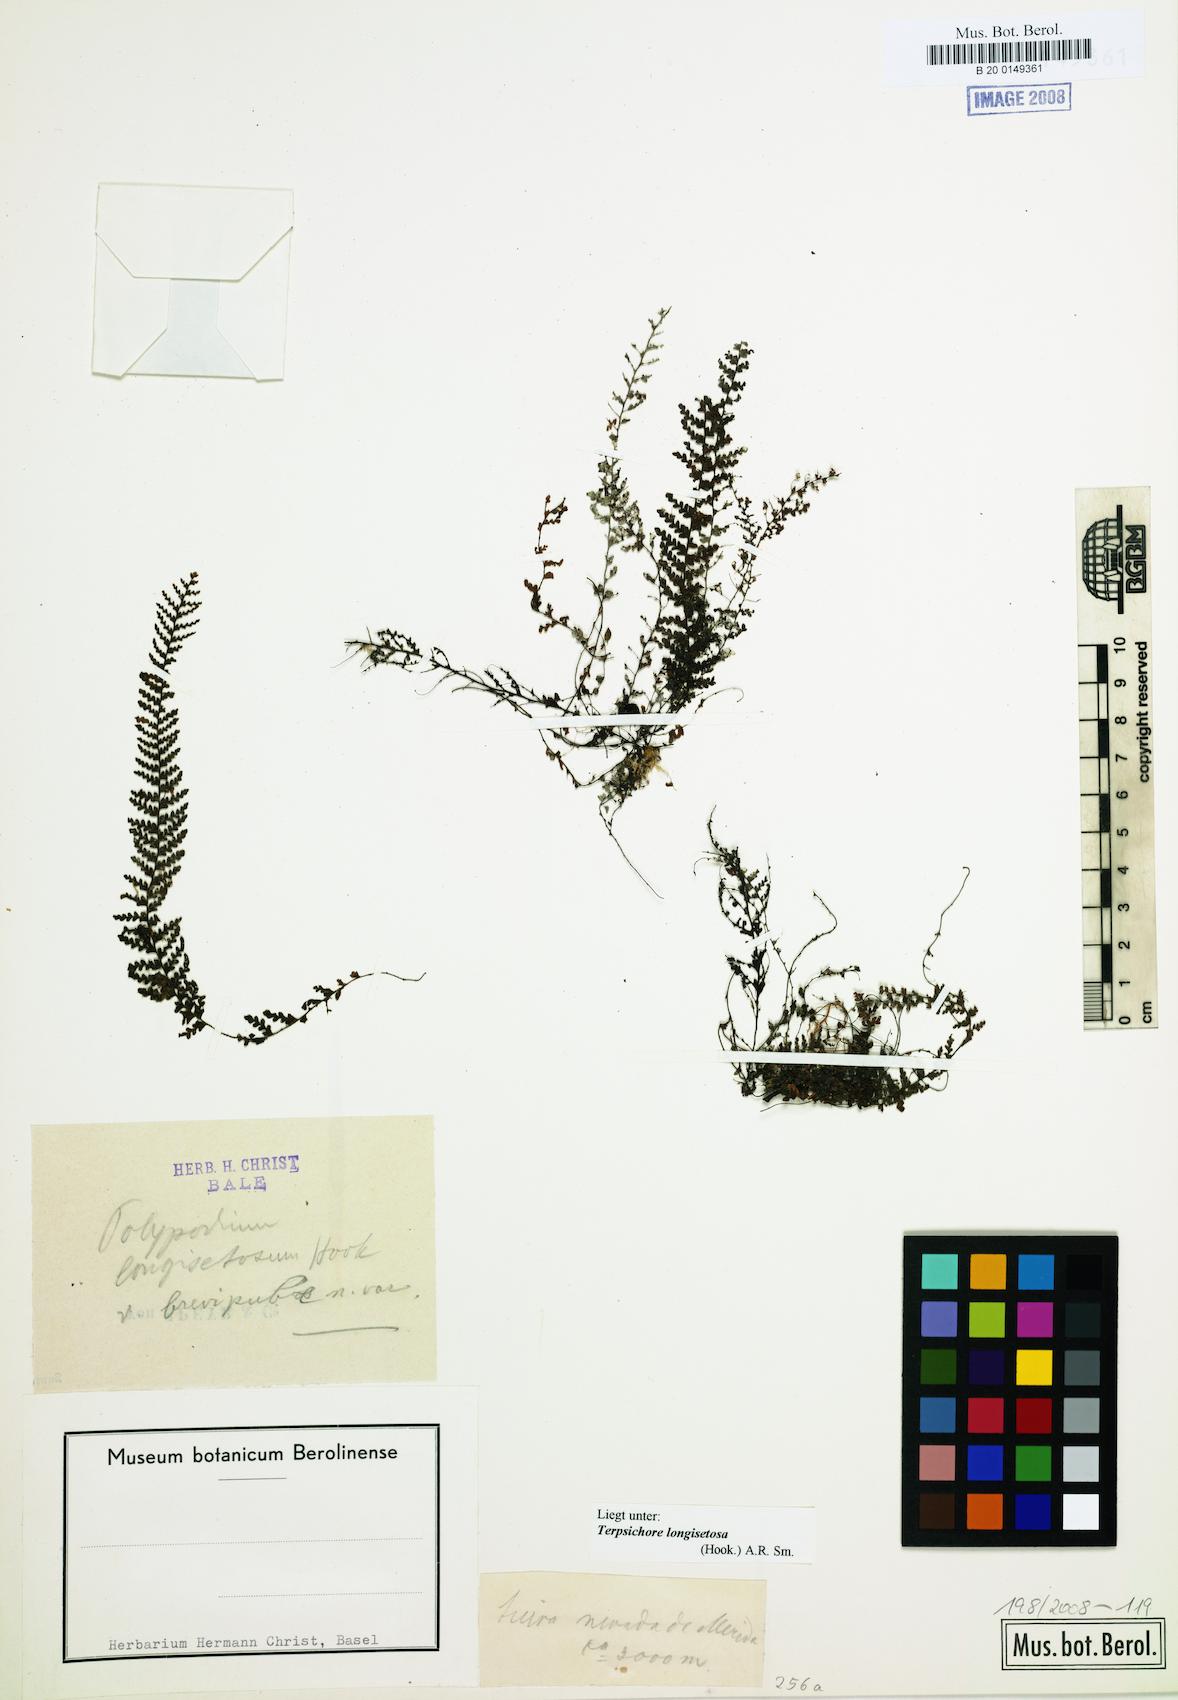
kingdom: Plantae
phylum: Tracheophyta
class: Polypodiopsida
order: Polypodiales
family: Polypodiaceae
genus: Moranopteris
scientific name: Moranopteris longisetosa
